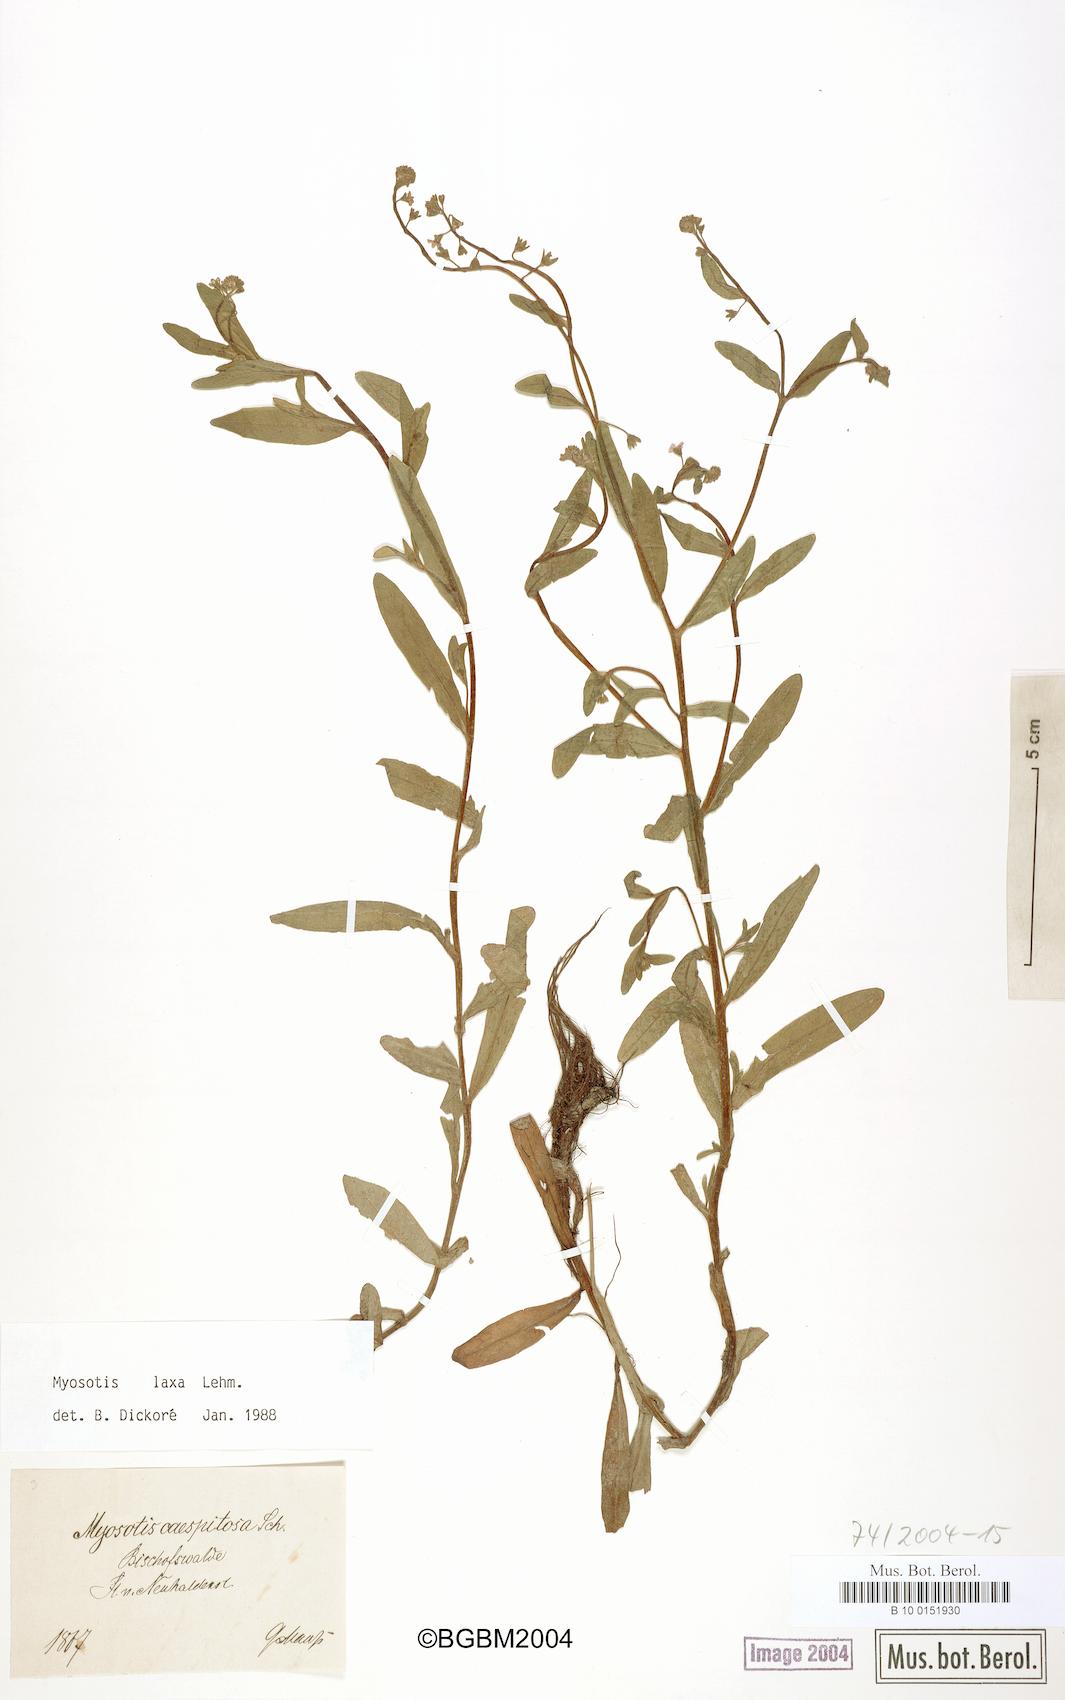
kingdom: Plantae
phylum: Tracheophyta
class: Magnoliopsida
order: Boraginales
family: Boraginaceae
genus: Myosotis
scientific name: Myosotis laxa
